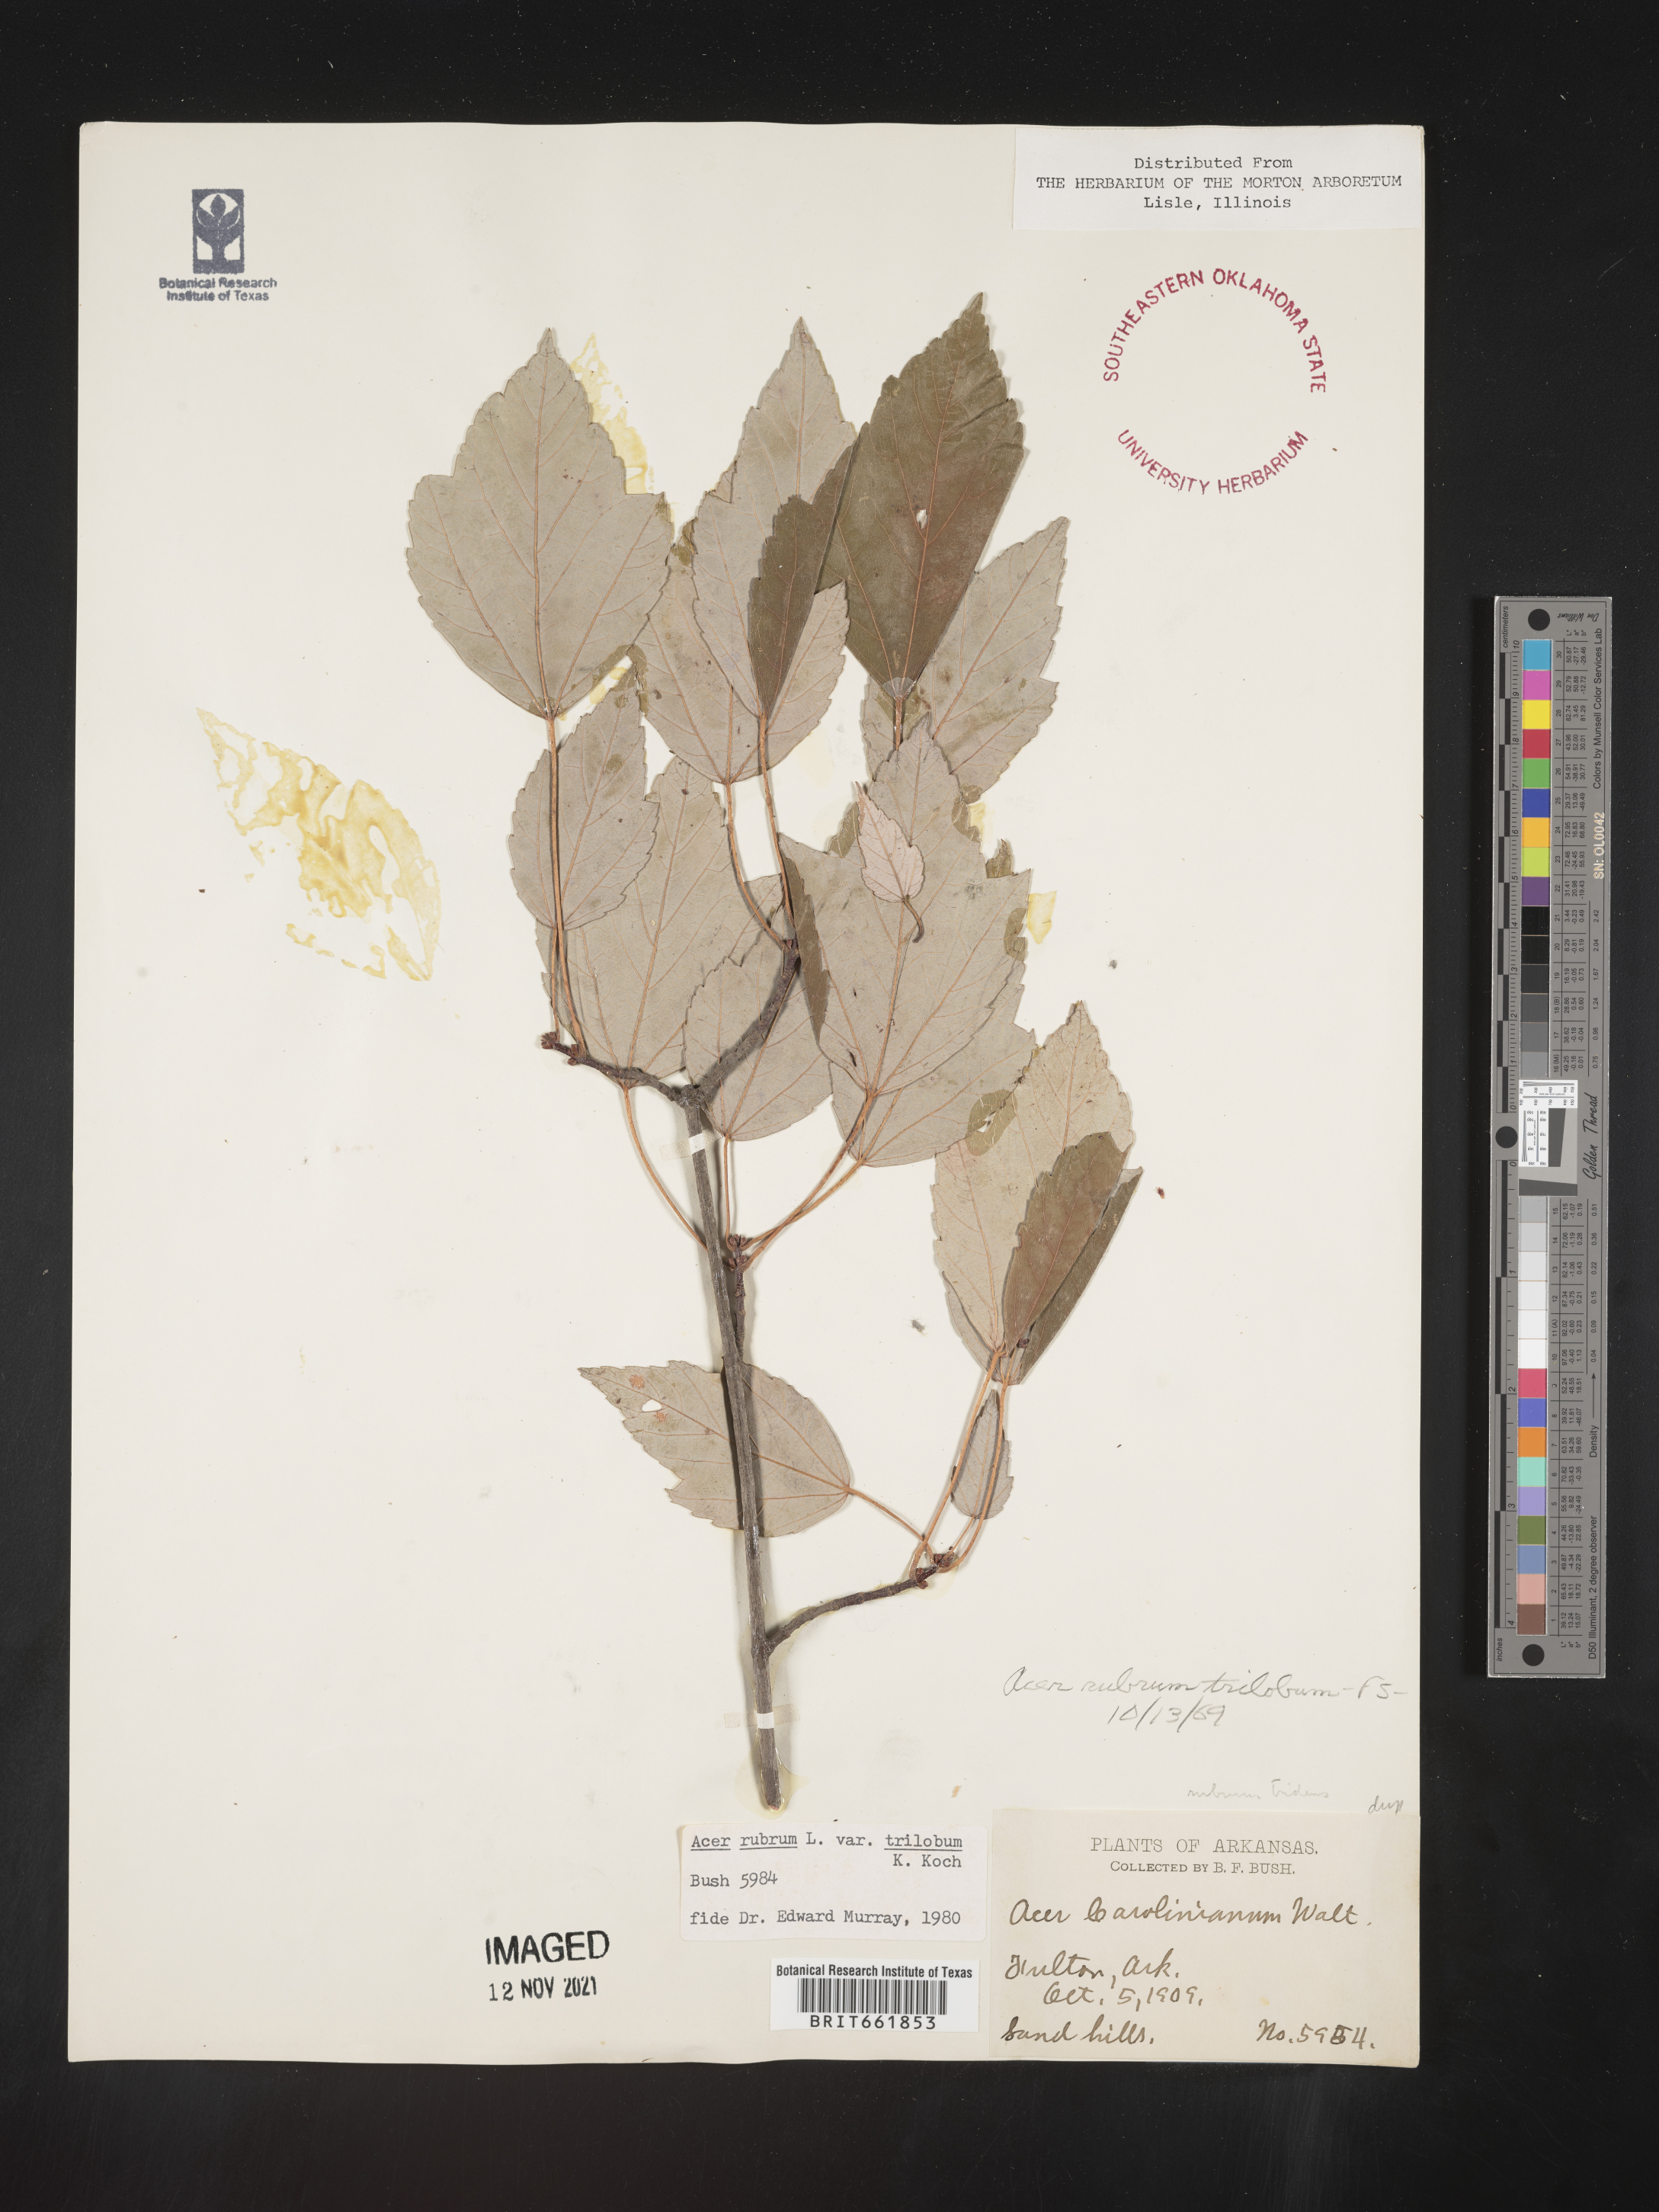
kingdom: Plantae
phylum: Tracheophyta
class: Magnoliopsida
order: Sapindales
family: Sapindaceae
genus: Acer
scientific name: Acer rubrum
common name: Red maple
